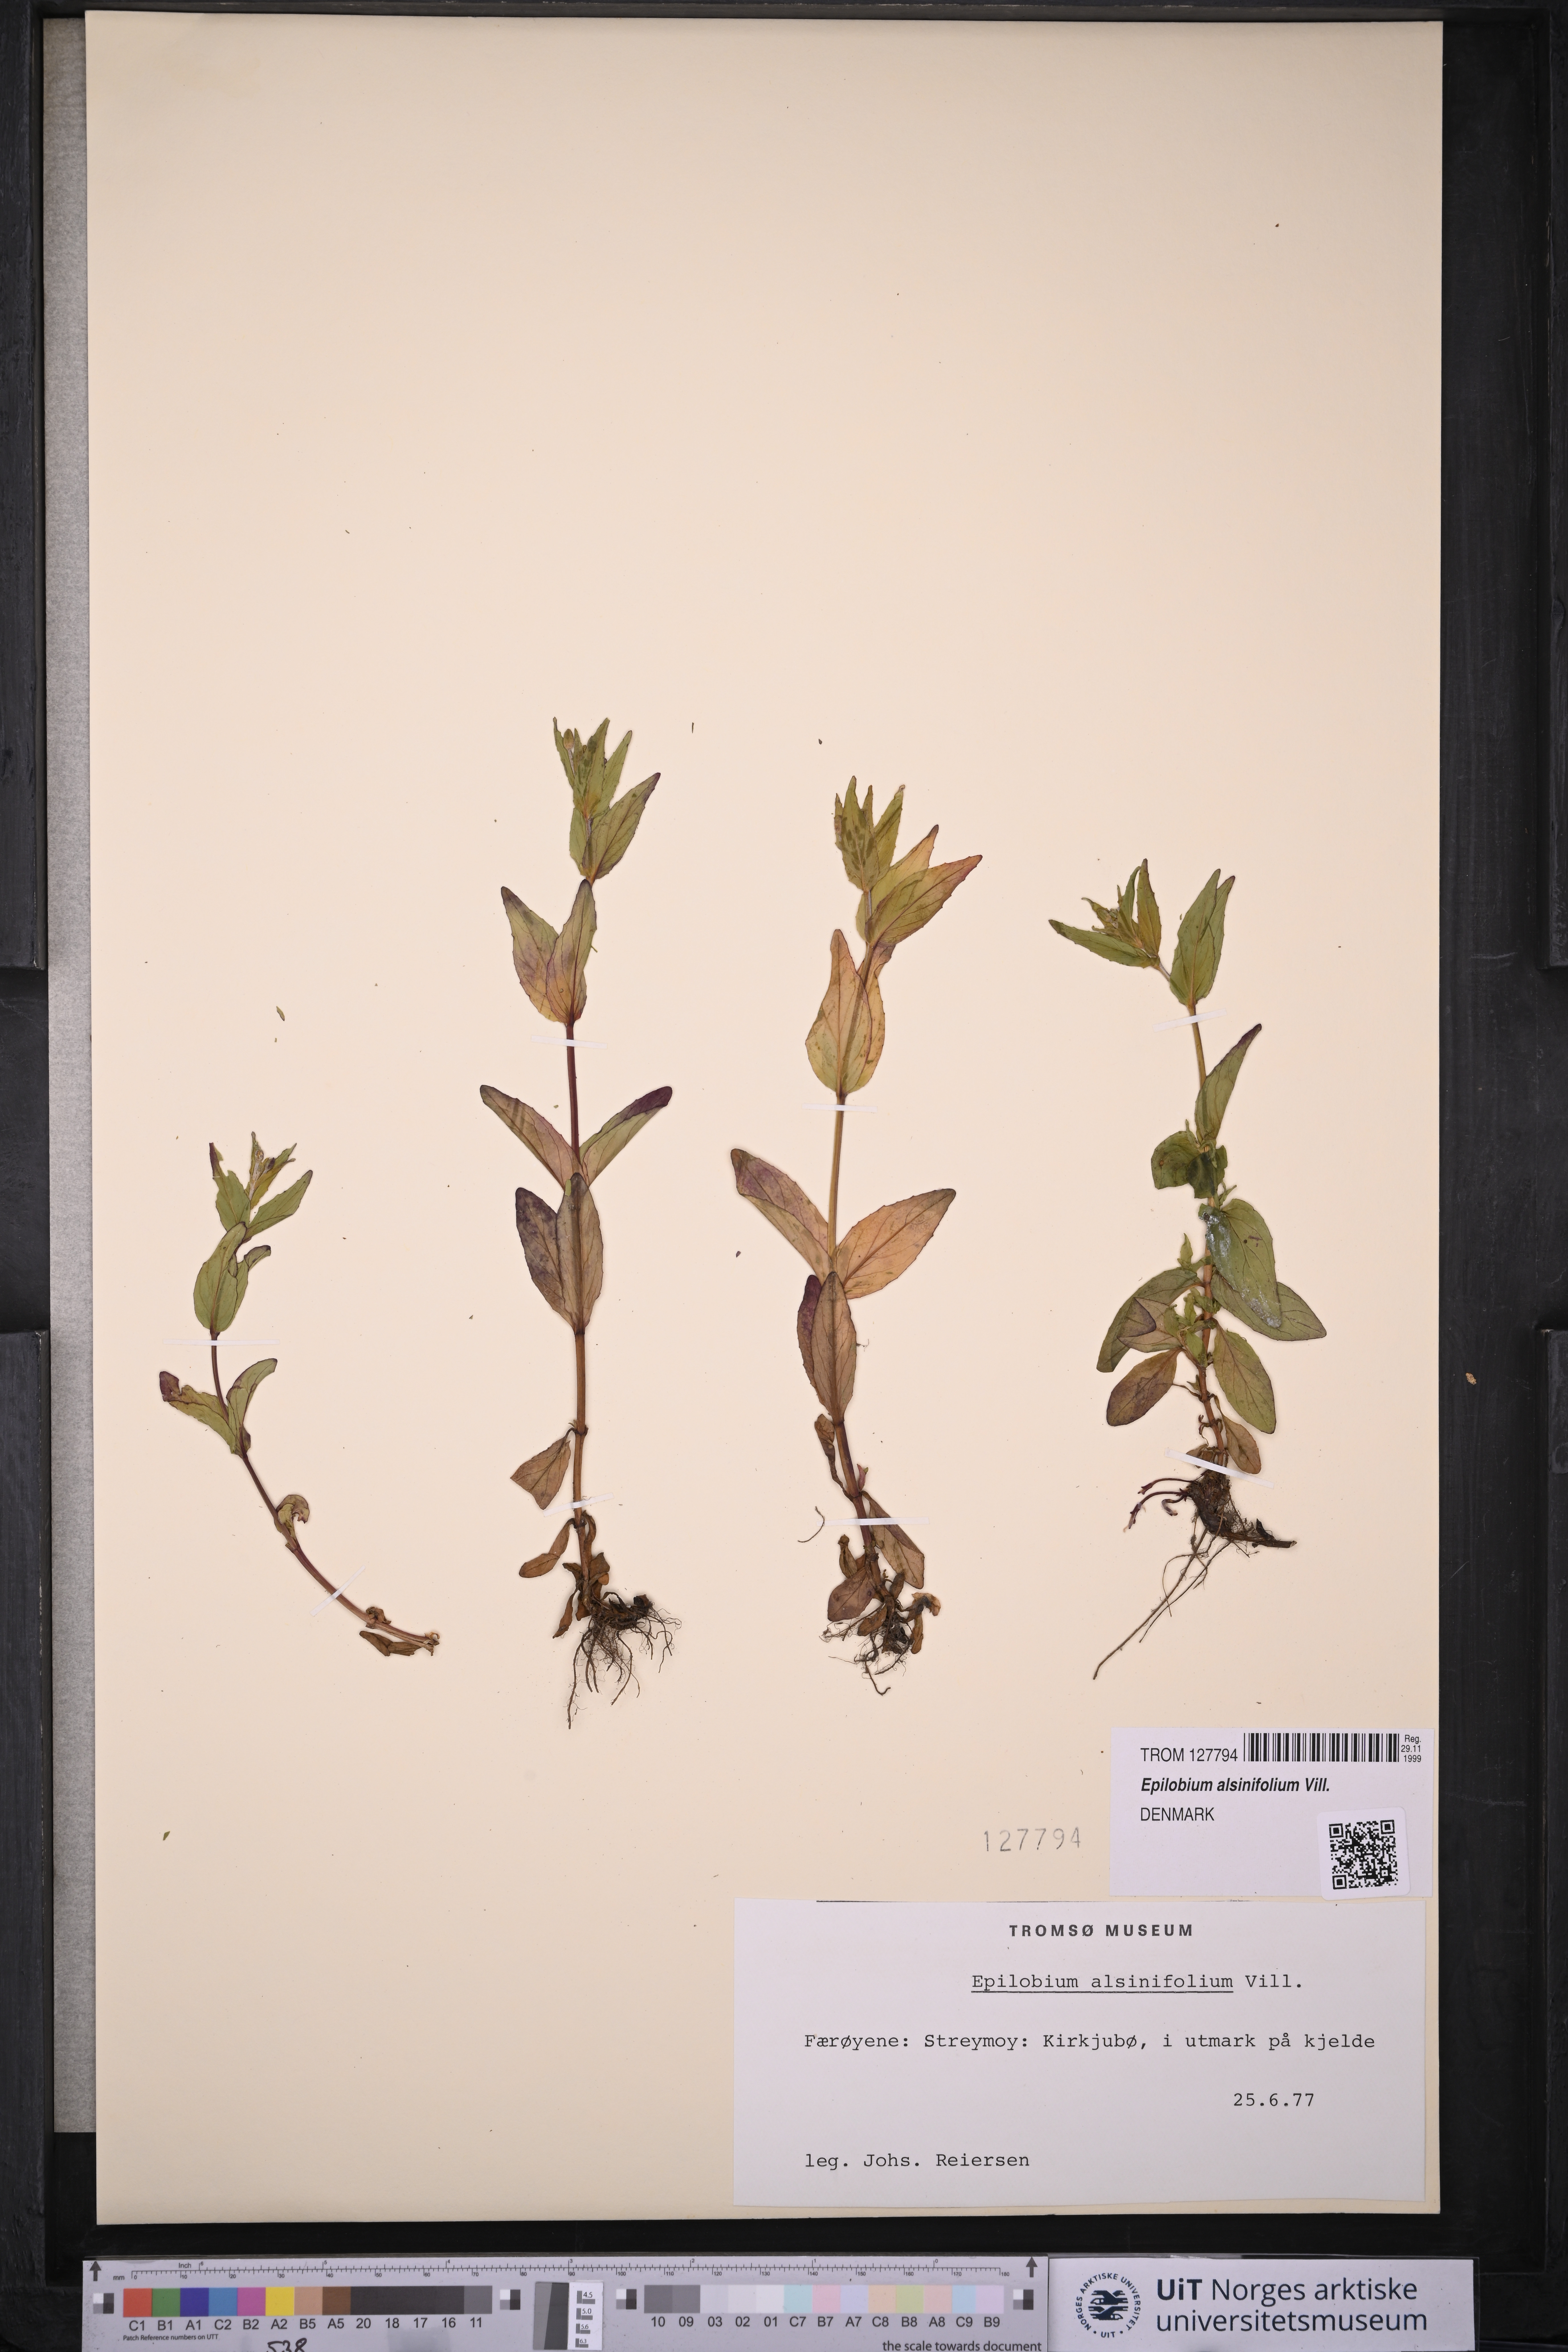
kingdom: Plantae
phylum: Tracheophyta
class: Magnoliopsida
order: Myrtales
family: Onagraceae
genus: Epilobium
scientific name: Epilobium alsinifolium
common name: Chickweed willowherb
